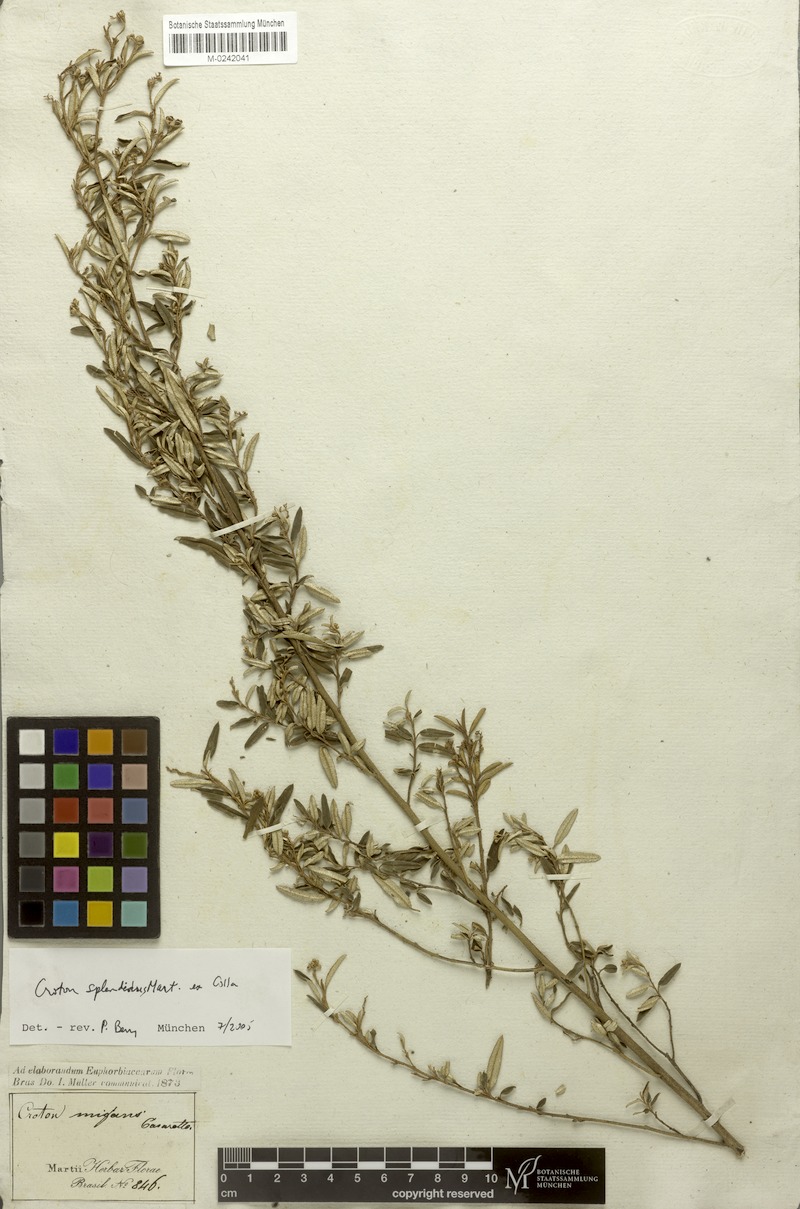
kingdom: Plantae
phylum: Tracheophyta
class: Magnoliopsida
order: Malpighiales
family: Euphorbiaceae
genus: Croton
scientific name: Croton splendidus
